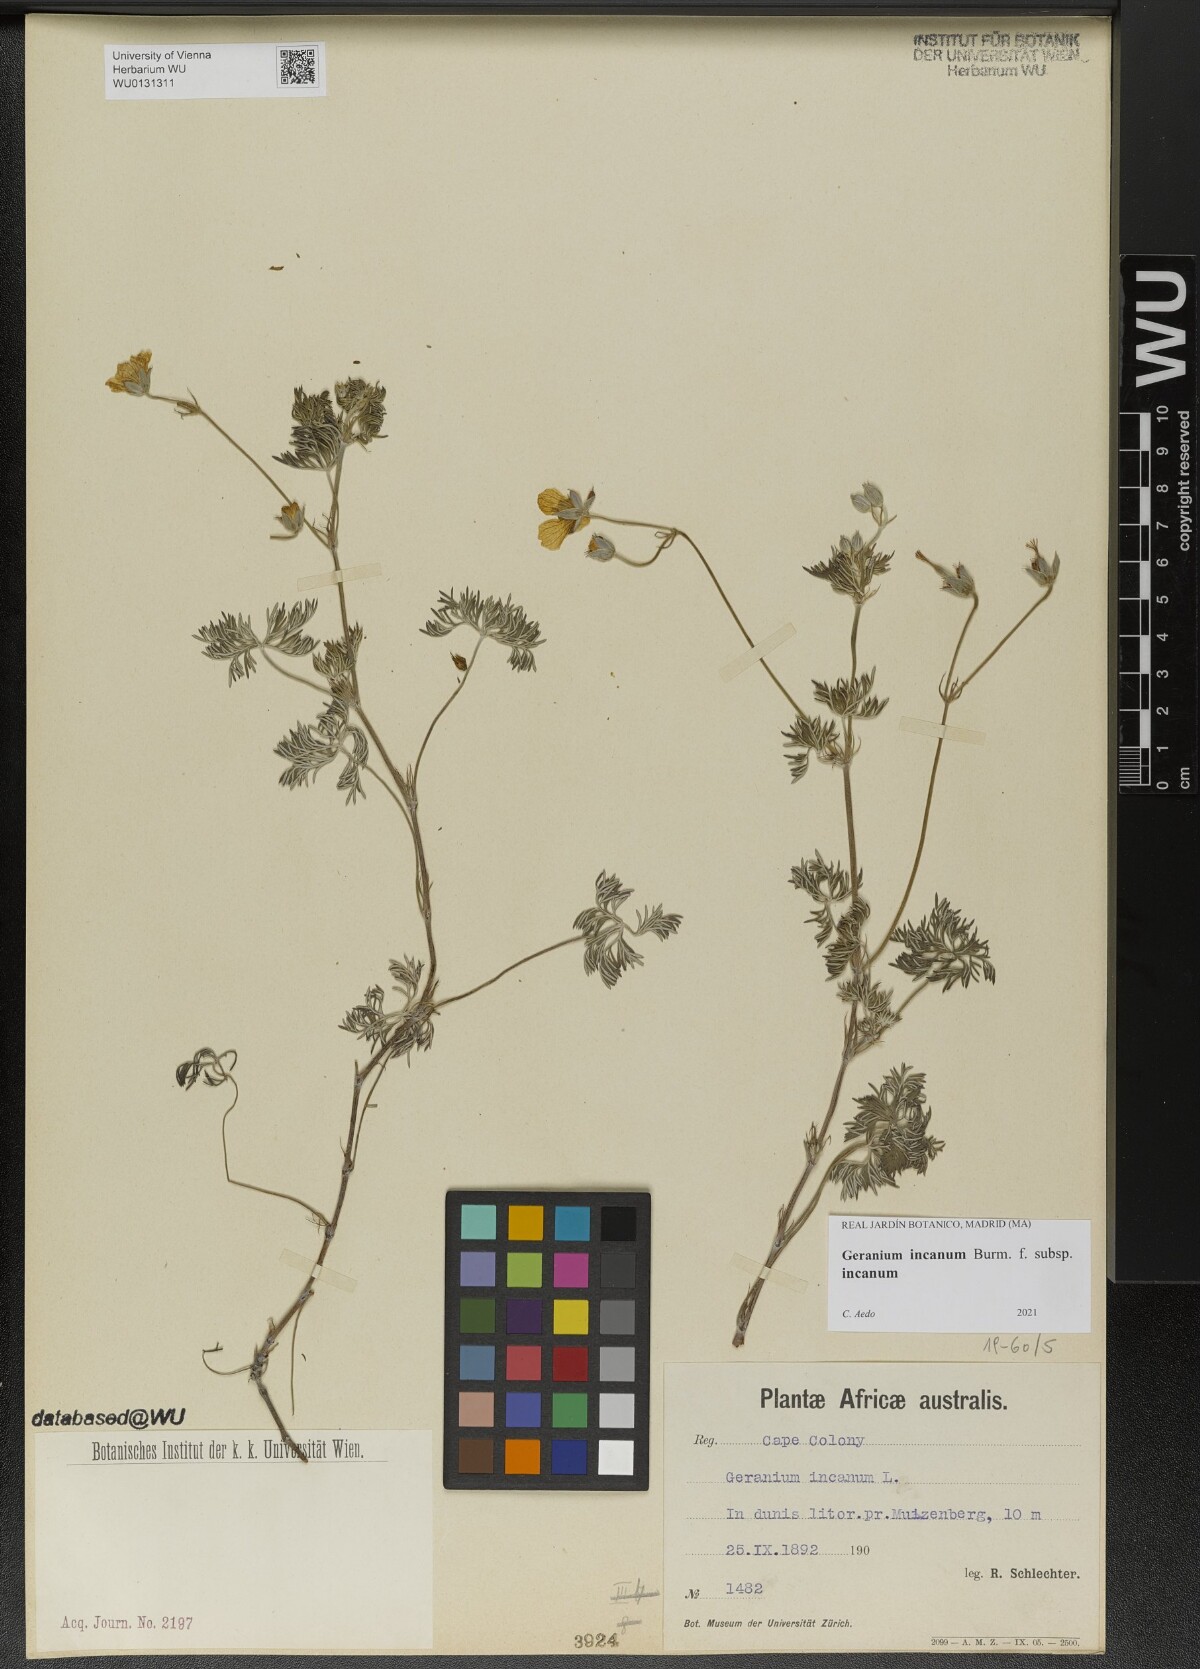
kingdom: Plantae
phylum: Tracheophyta
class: Magnoliopsida
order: Geraniales
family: Geraniaceae
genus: Geranium
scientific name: Geranium incanum
